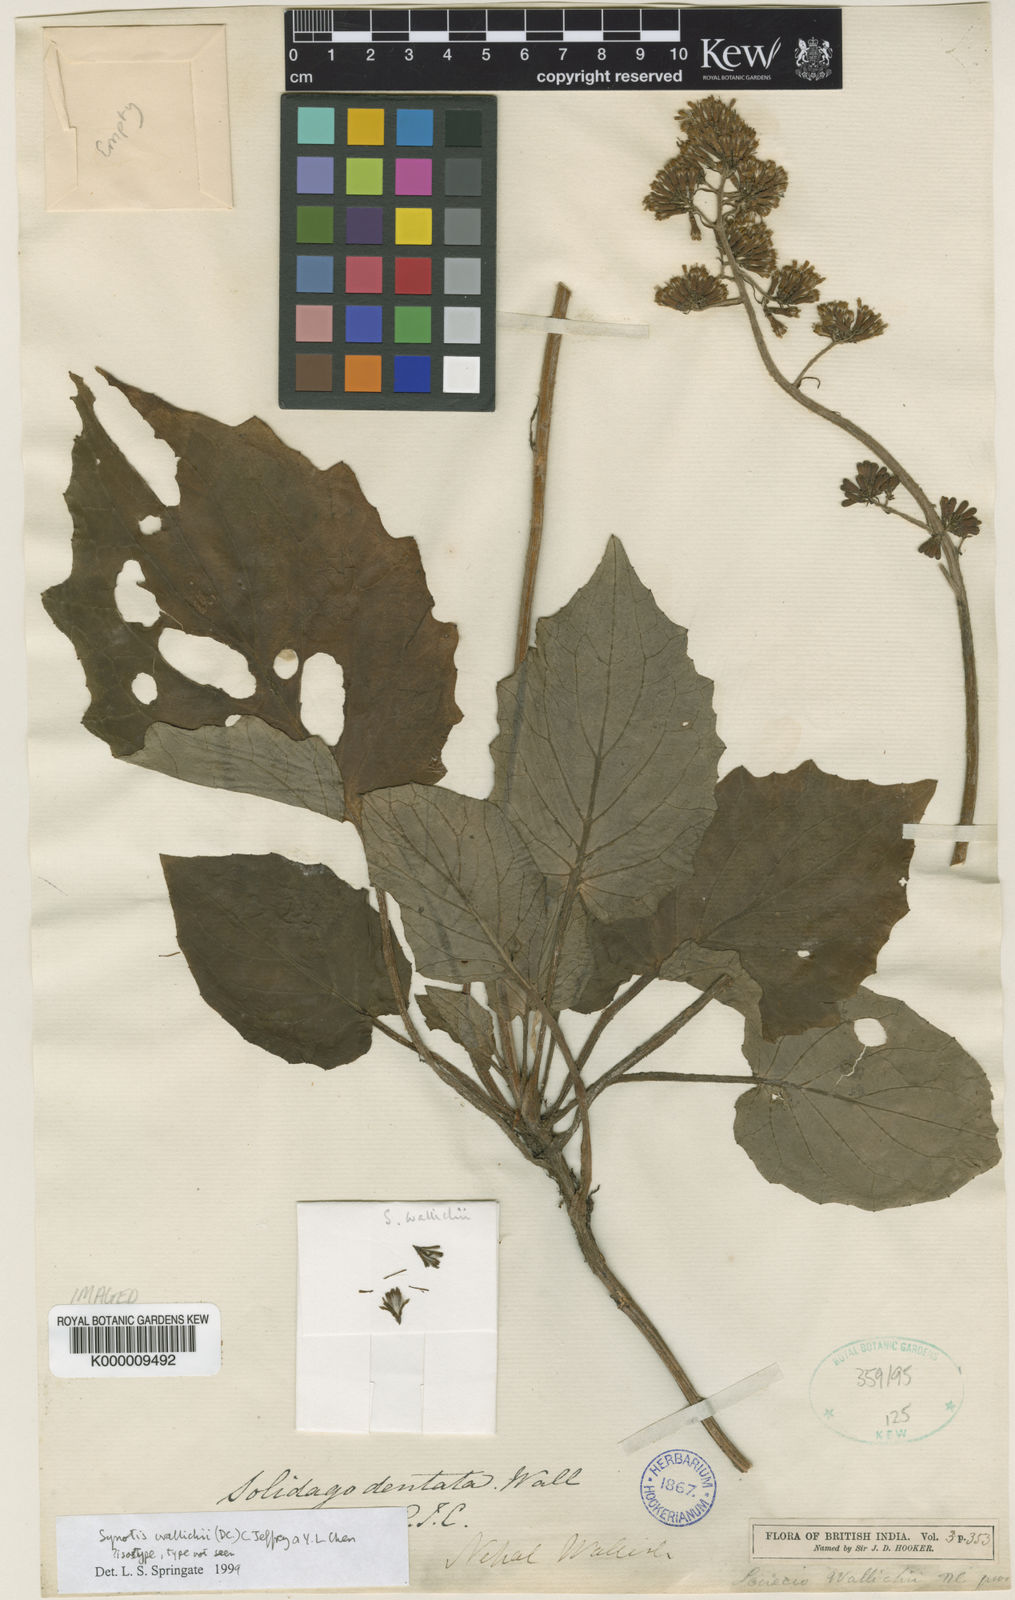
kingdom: Plantae
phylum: Tracheophyta
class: Magnoliopsida
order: Asterales
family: Asteraceae
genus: Synotis
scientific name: Synotis wallichii
